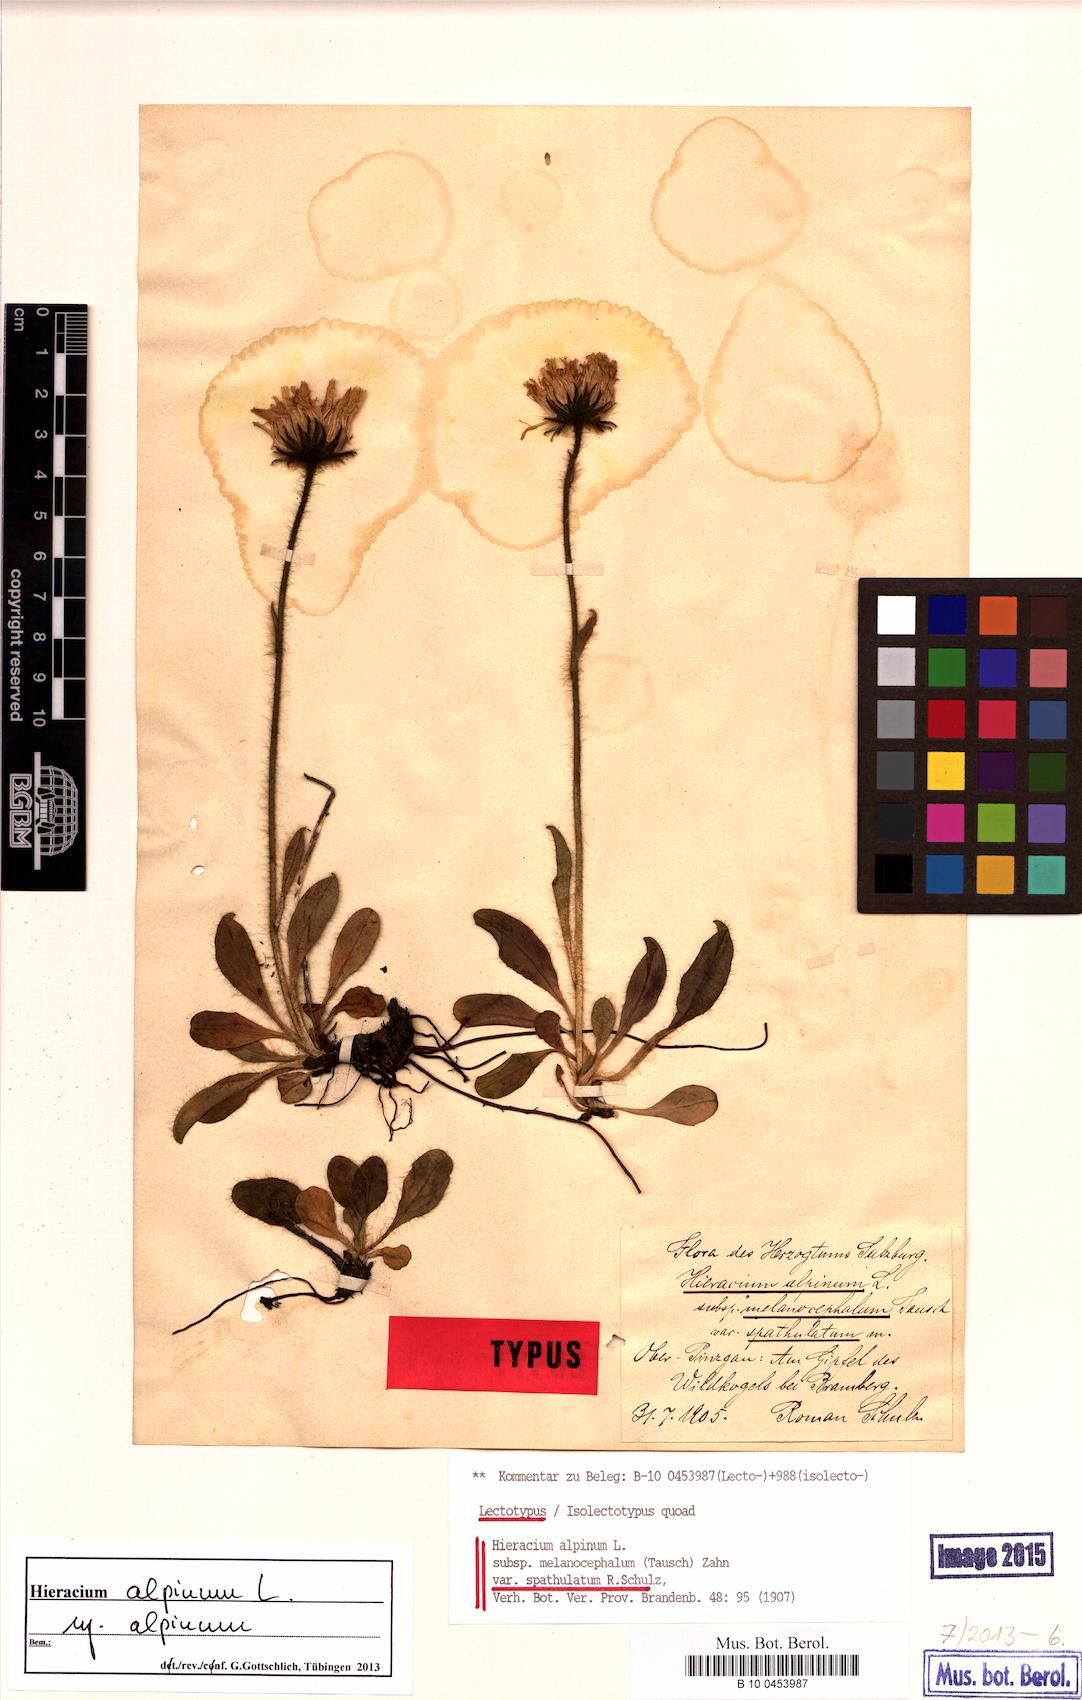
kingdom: Plantae
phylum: Tracheophyta
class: Magnoliopsida
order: Asterales
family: Asteraceae
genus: Hieracium
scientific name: Hieracium alpinum
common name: Alpine hawkweed
